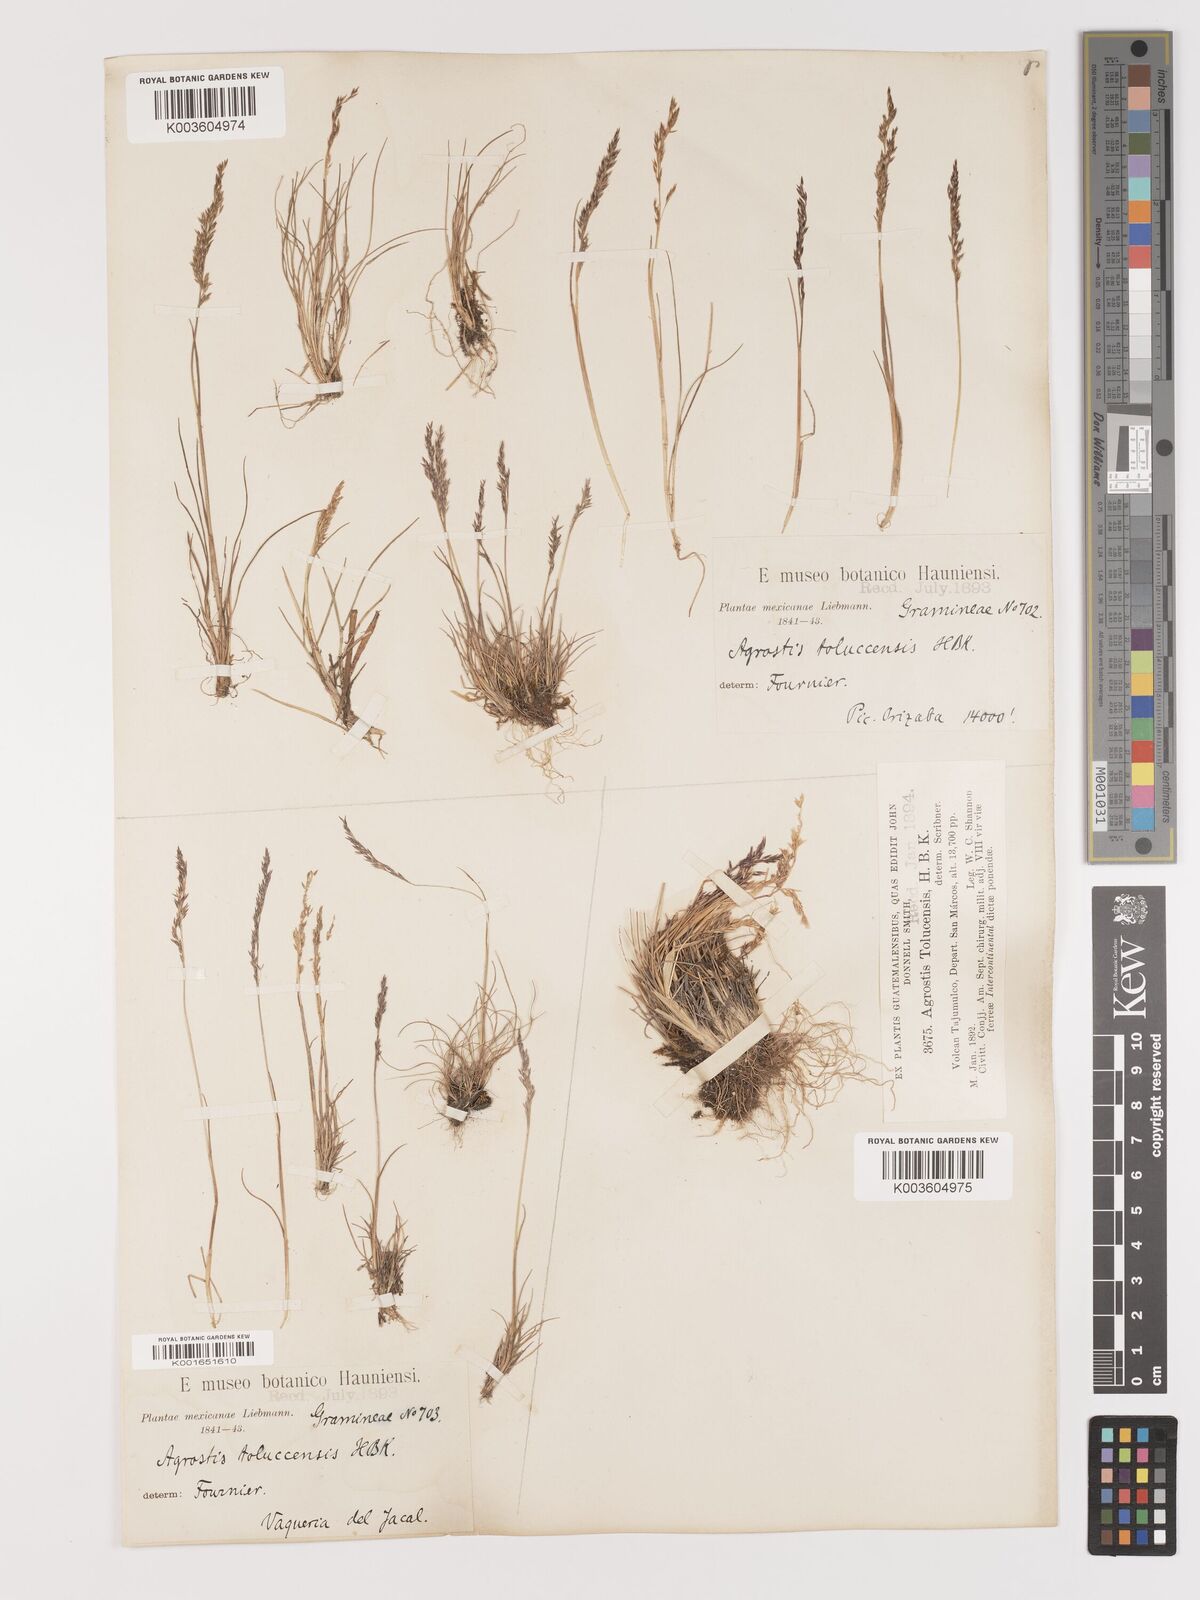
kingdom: Plantae
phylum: Tracheophyta
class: Liliopsida
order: Poales
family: Poaceae
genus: Agrostis
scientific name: Agrostis tolucensis
